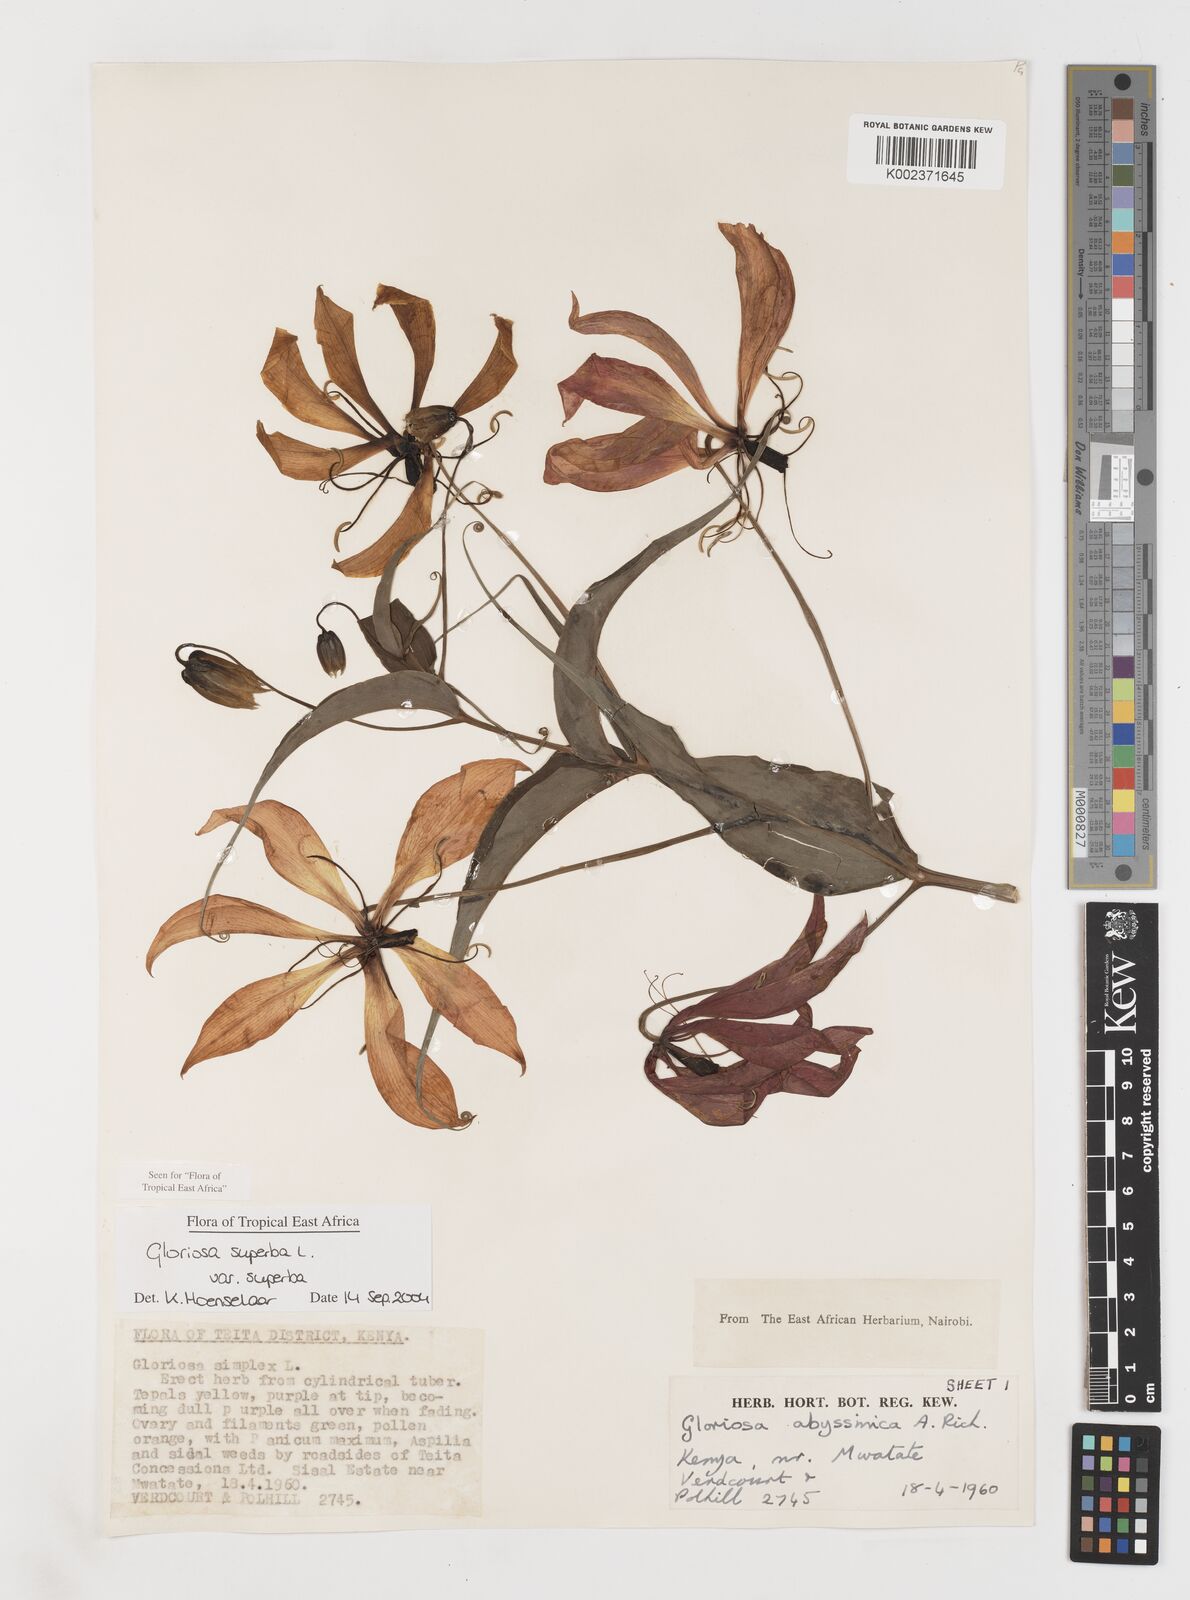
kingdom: Plantae
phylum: Tracheophyta
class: Liliopsida
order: Liliales
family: Colchicaceae
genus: Gloriosa
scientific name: Gloriosa simplex
